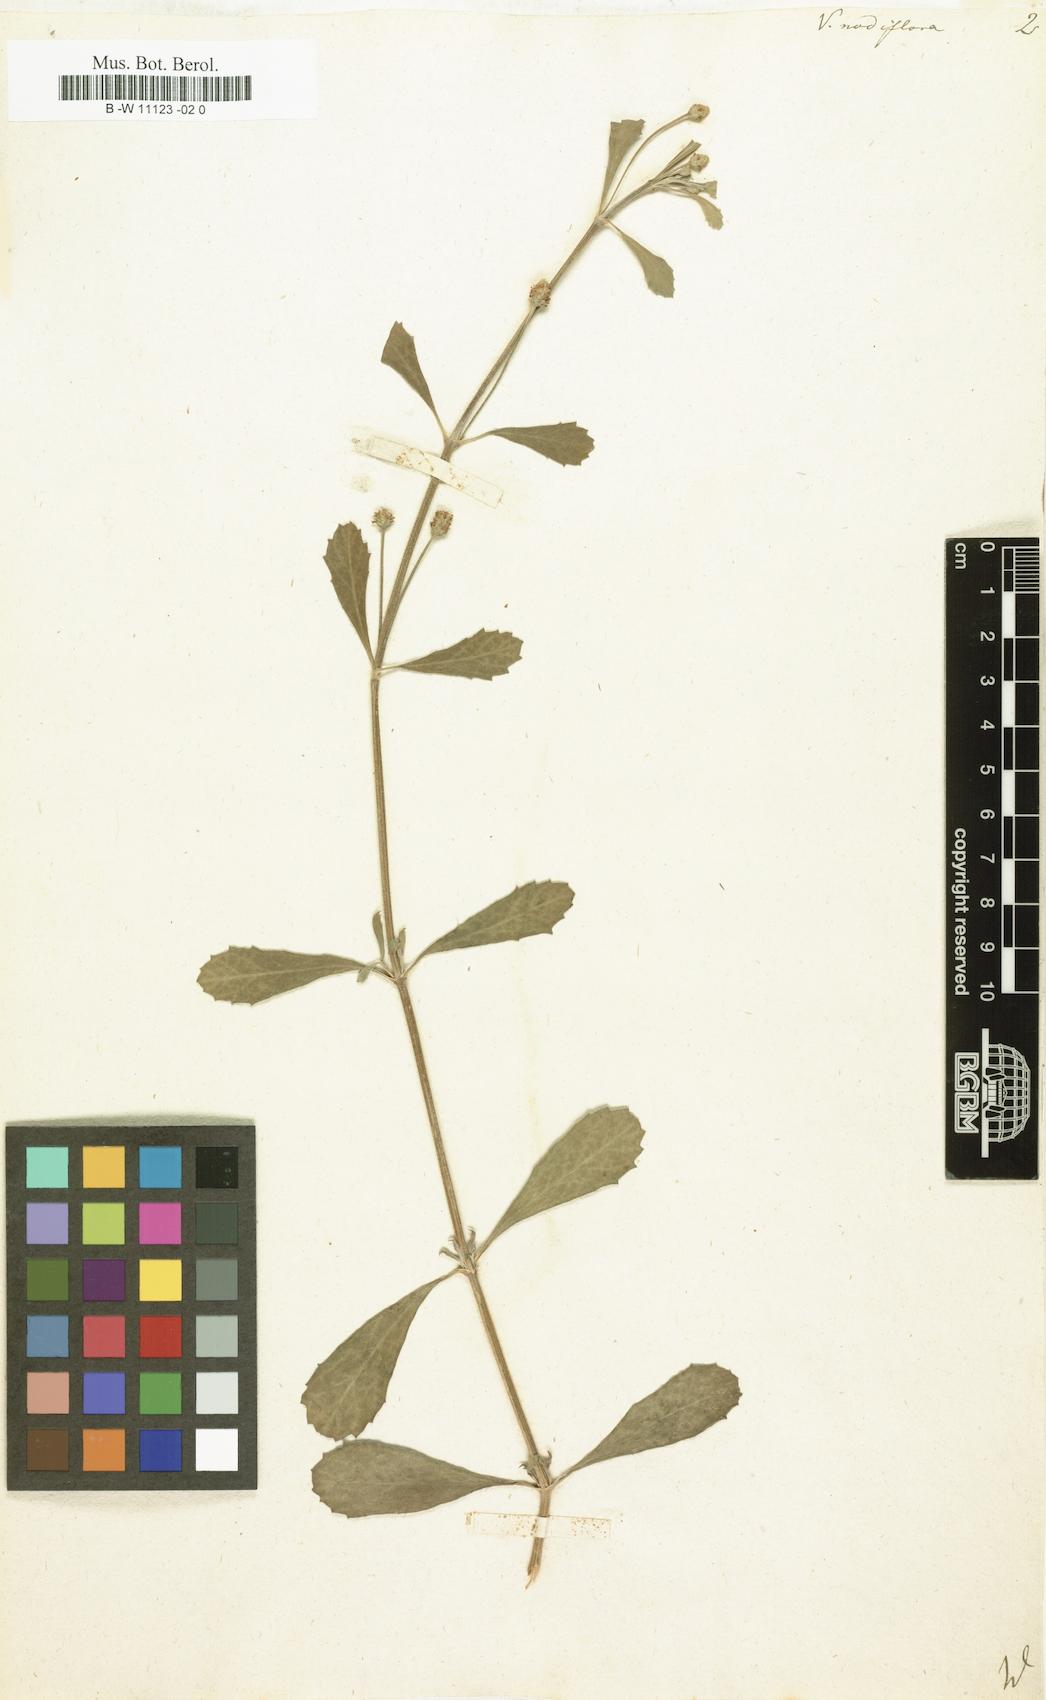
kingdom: Plantae
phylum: Tracheophyta
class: Magnoliopsida
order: Lamiales
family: Verbenaceae
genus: Verbena
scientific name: Verbena nodiflora
